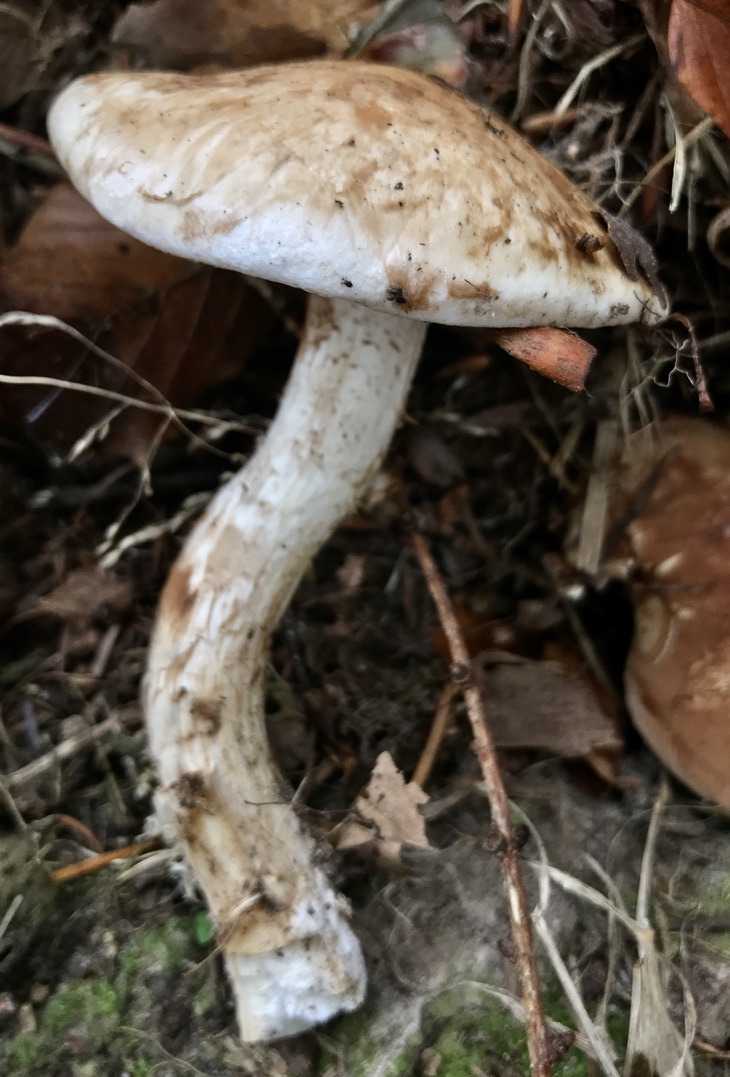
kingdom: Fungi
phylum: Basidiomycota
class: Agaricomycetes
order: Agaricales
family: Hymenogastraceae
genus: Hebeloma
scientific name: Hebeloma radicosum
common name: pælerods-tåreblad
